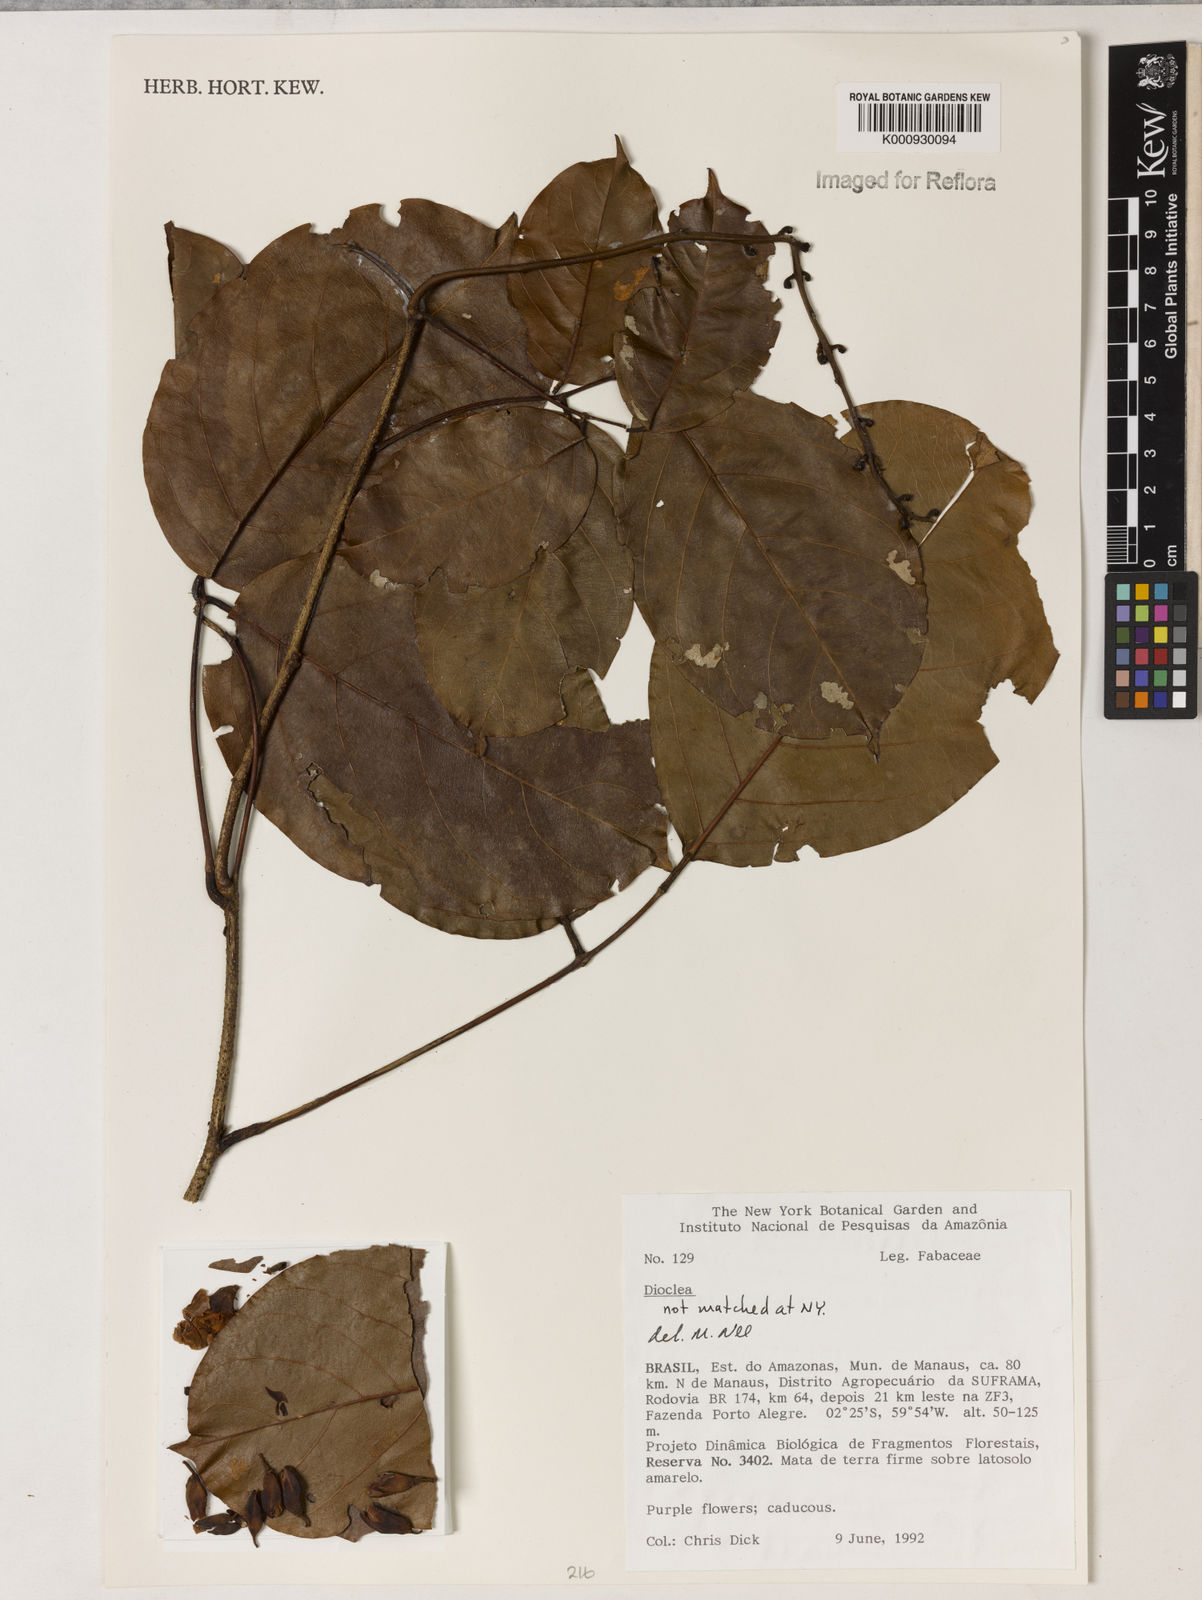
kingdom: Plantae
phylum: Tracheophyta
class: Magnoliopsida
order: Fabales
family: Fabaceae
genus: Dioclea
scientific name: Dioclea
